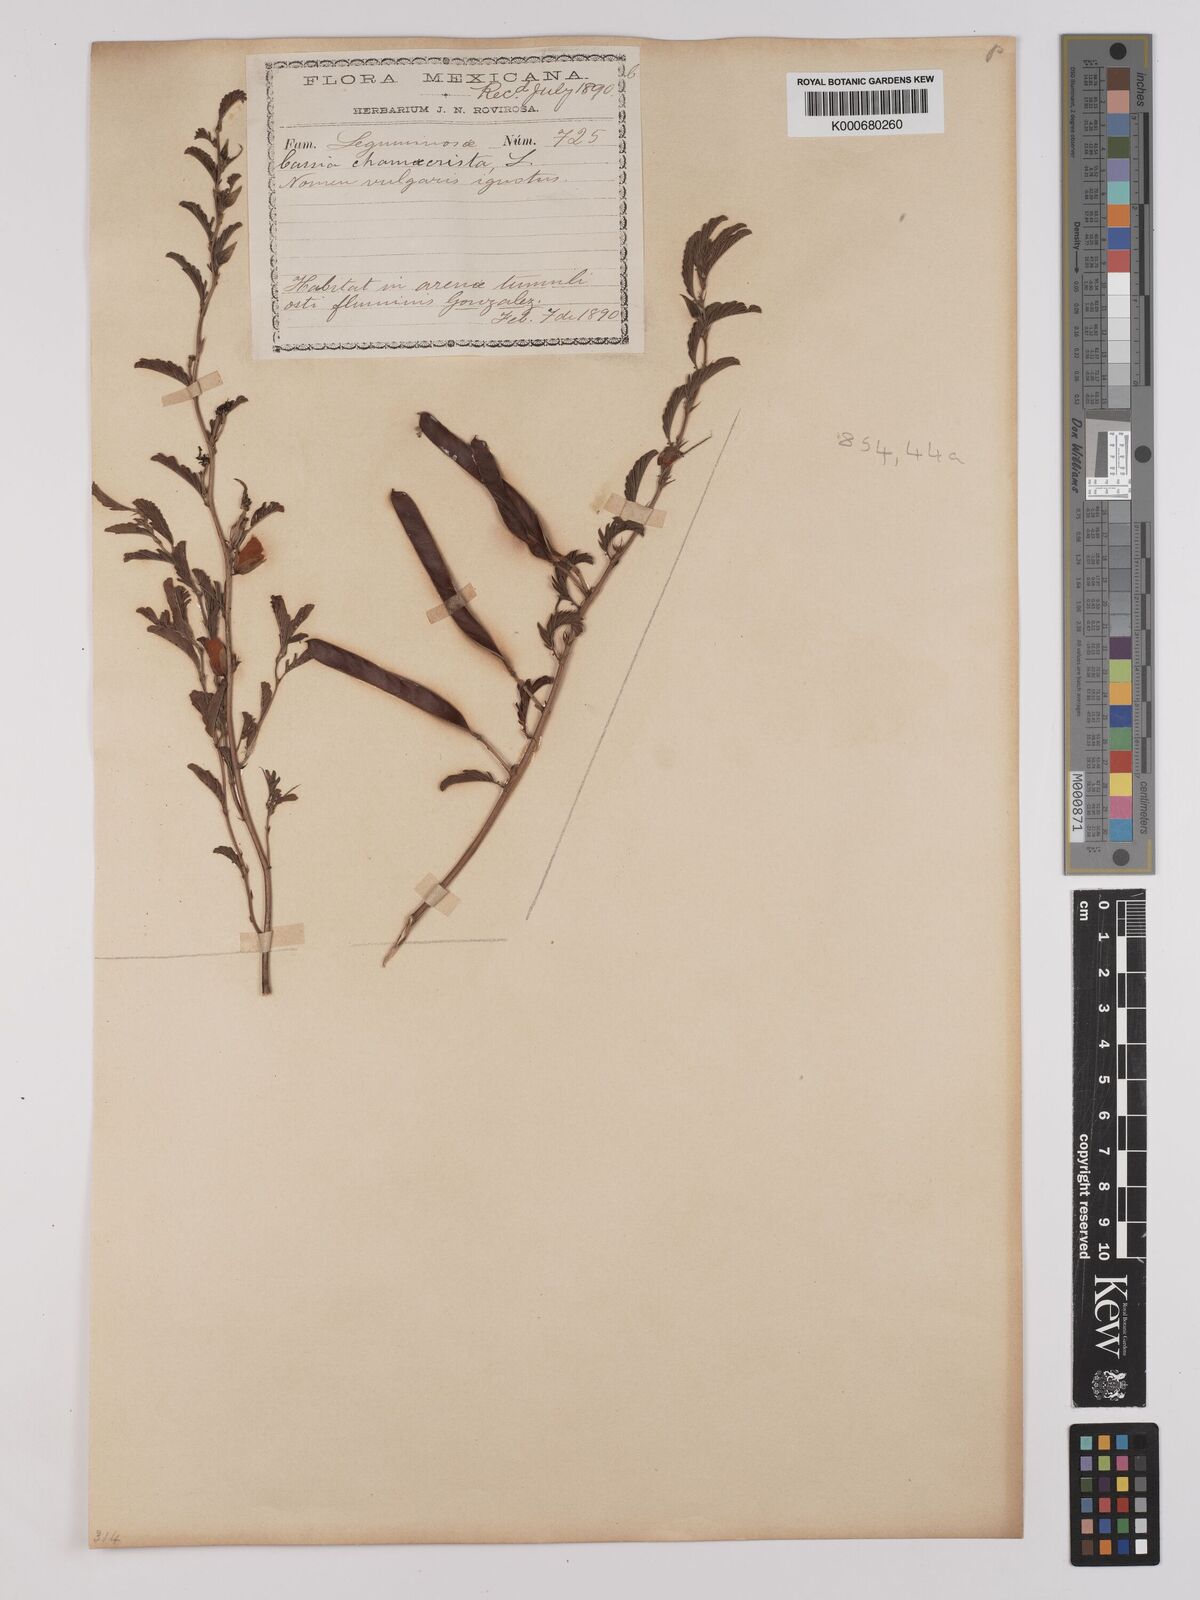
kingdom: Plantae
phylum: Tracheophyta
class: Magnoliopsida
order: Fabales
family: Fabaceae
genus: Chamaecrista
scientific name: Chamaecrista rufa
